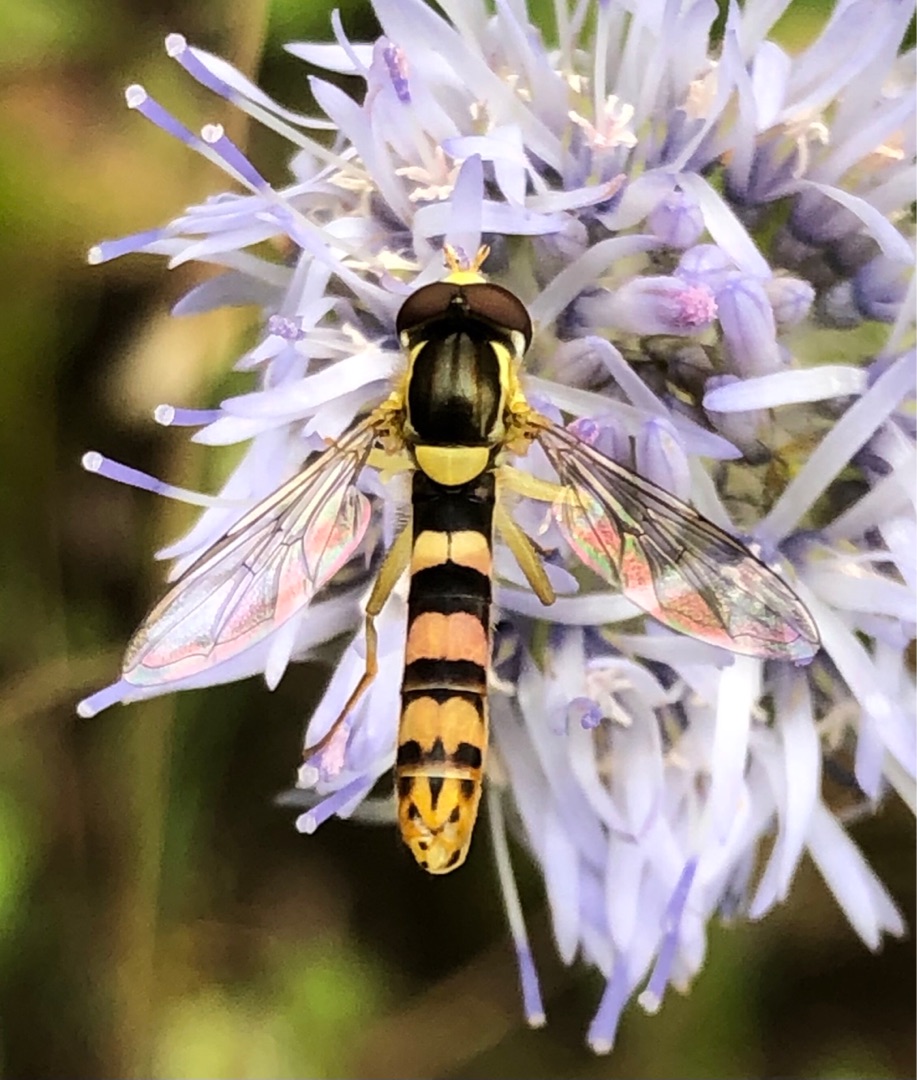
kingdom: Animalia
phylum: Arthropoda
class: Insecta
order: Diptera
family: Syrphidae
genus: Sphaerophoria
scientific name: Sphaerophoria scripta
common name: Almindelig kuglebærerflue
